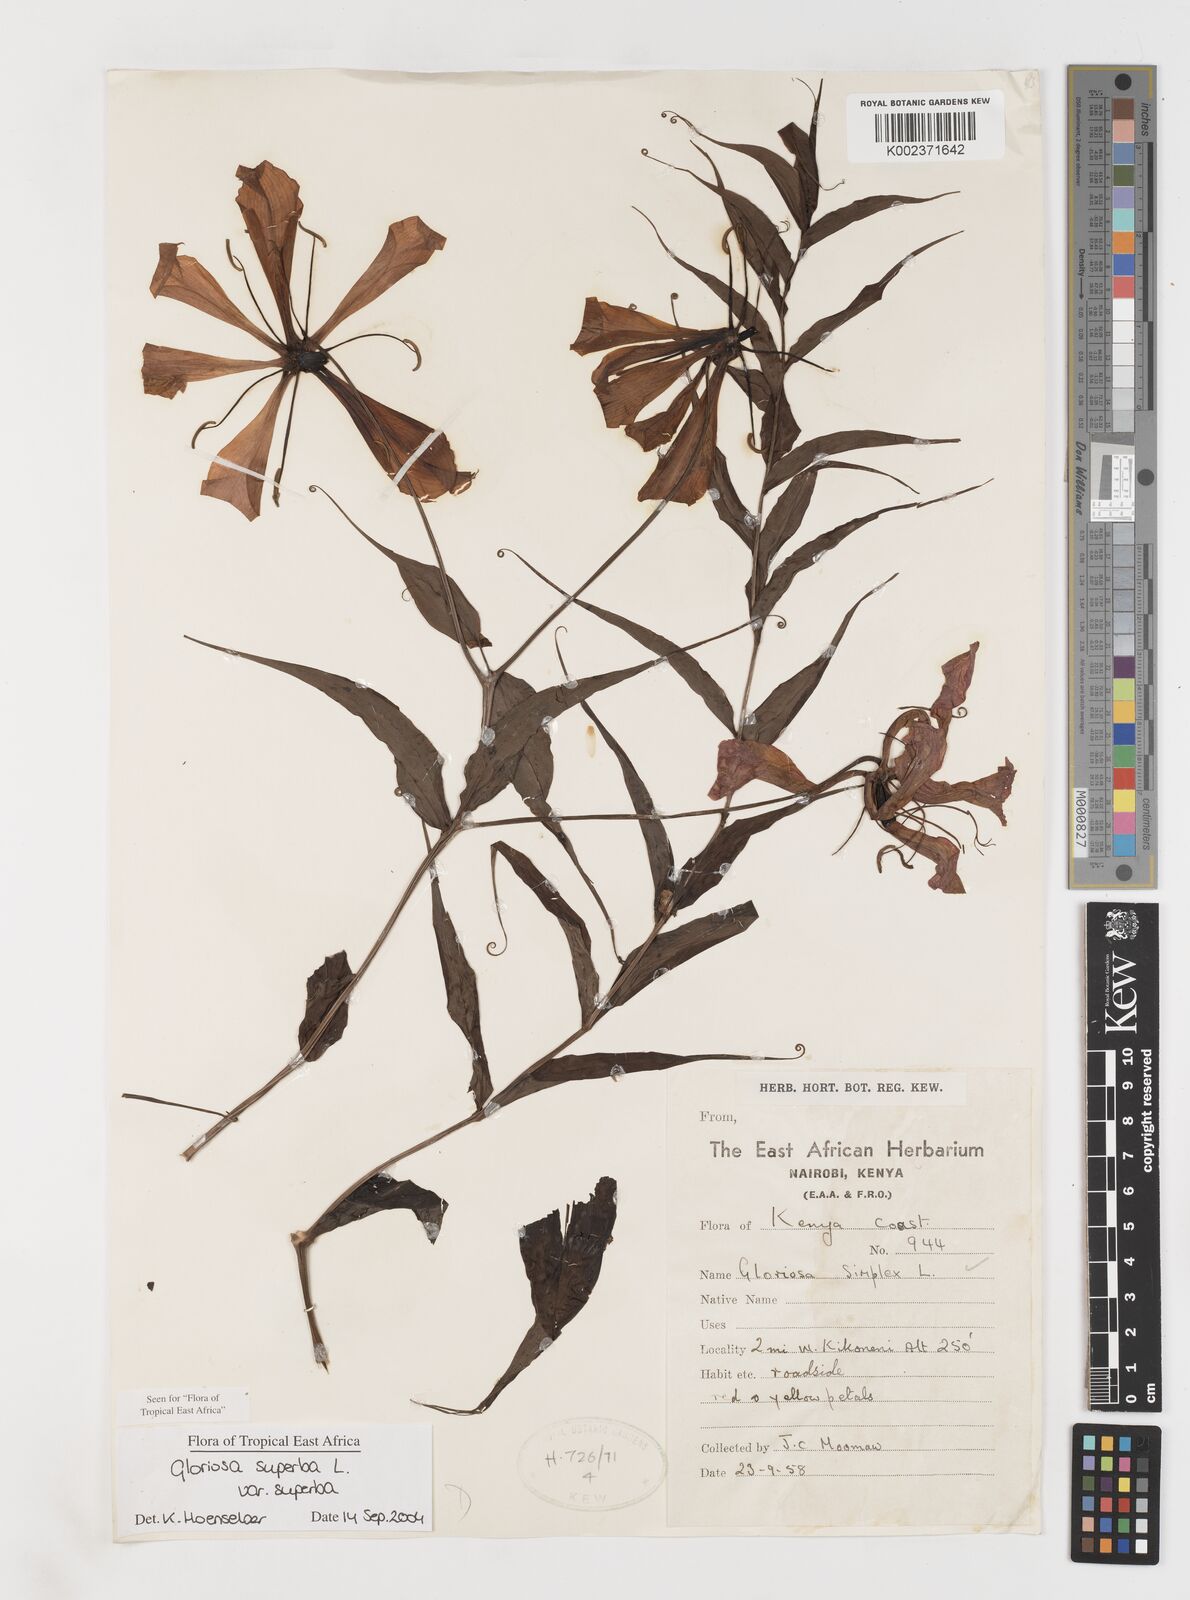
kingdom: Plantae
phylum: Tracheophyta
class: Liliopsida
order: Liliales
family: Colchicaceae
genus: Gloriosa
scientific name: Gloriosa simplex
